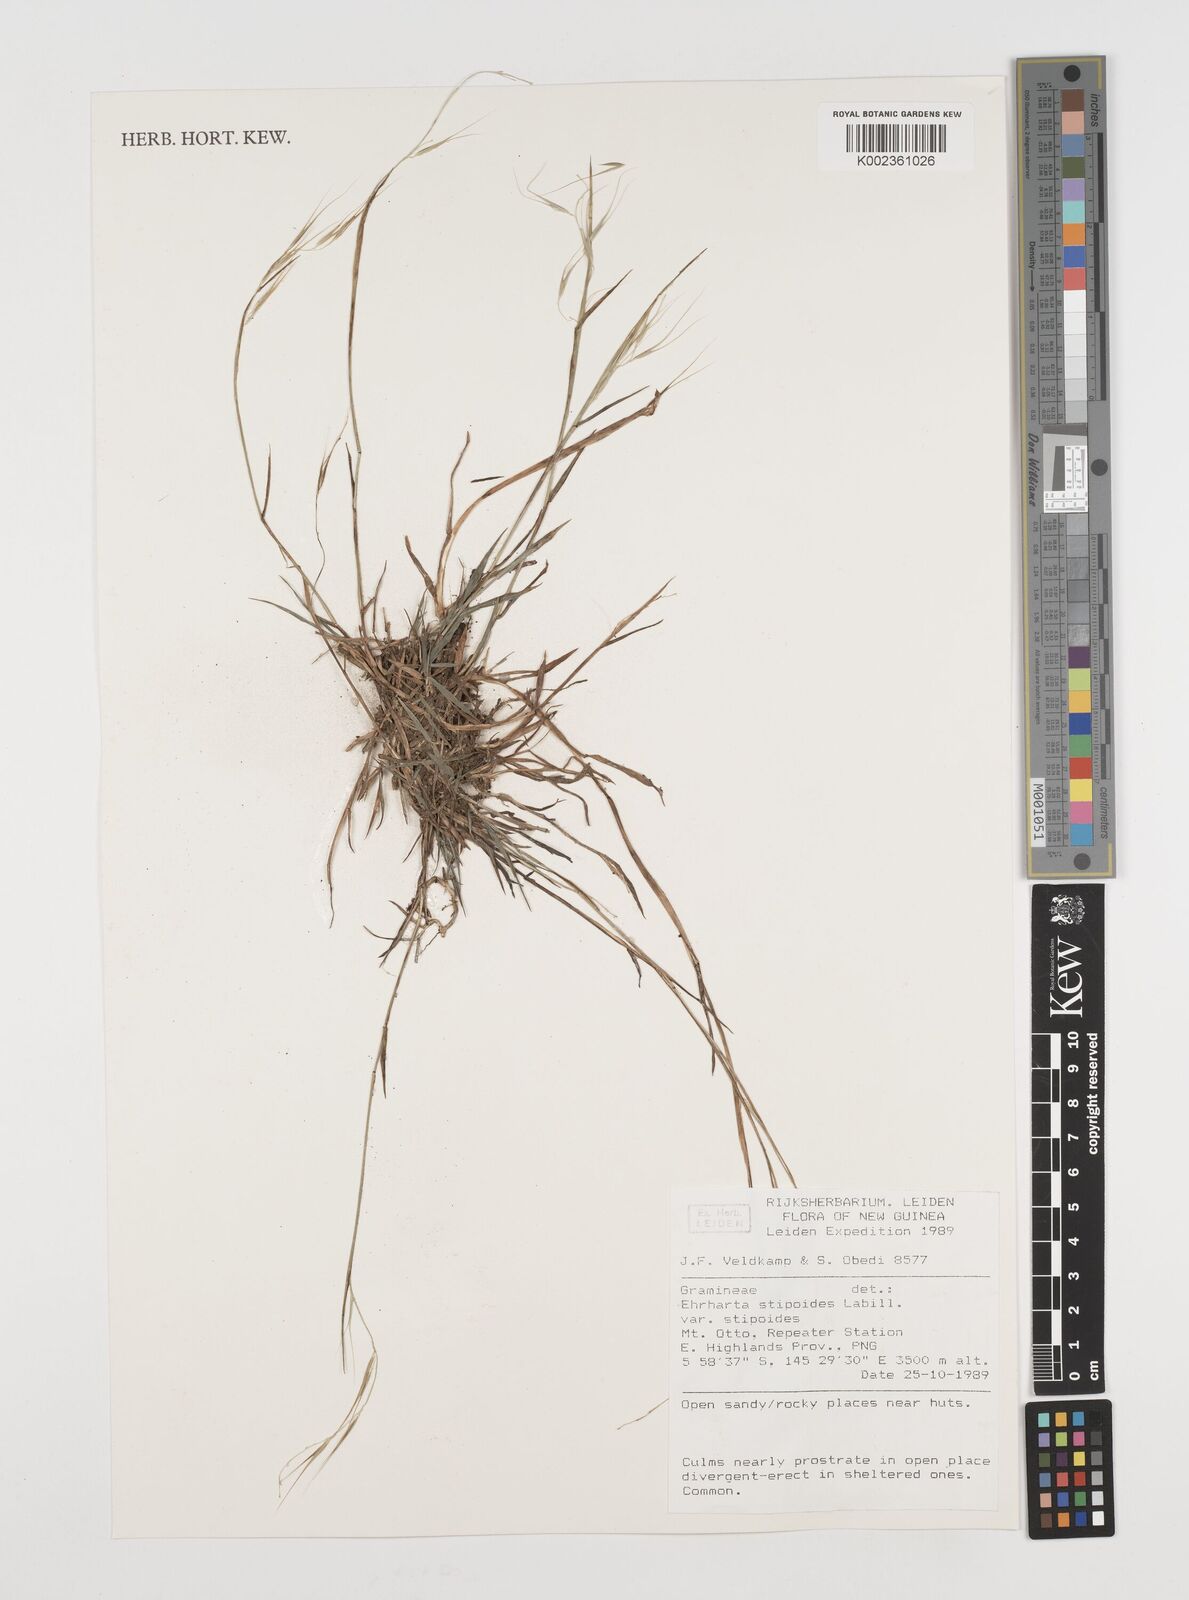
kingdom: Plantae
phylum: Tracheophyta
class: Liliopsida
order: Poales
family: Poaceae
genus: Microlaena
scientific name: Microlaena stipoides
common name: Meadow ricegrass
